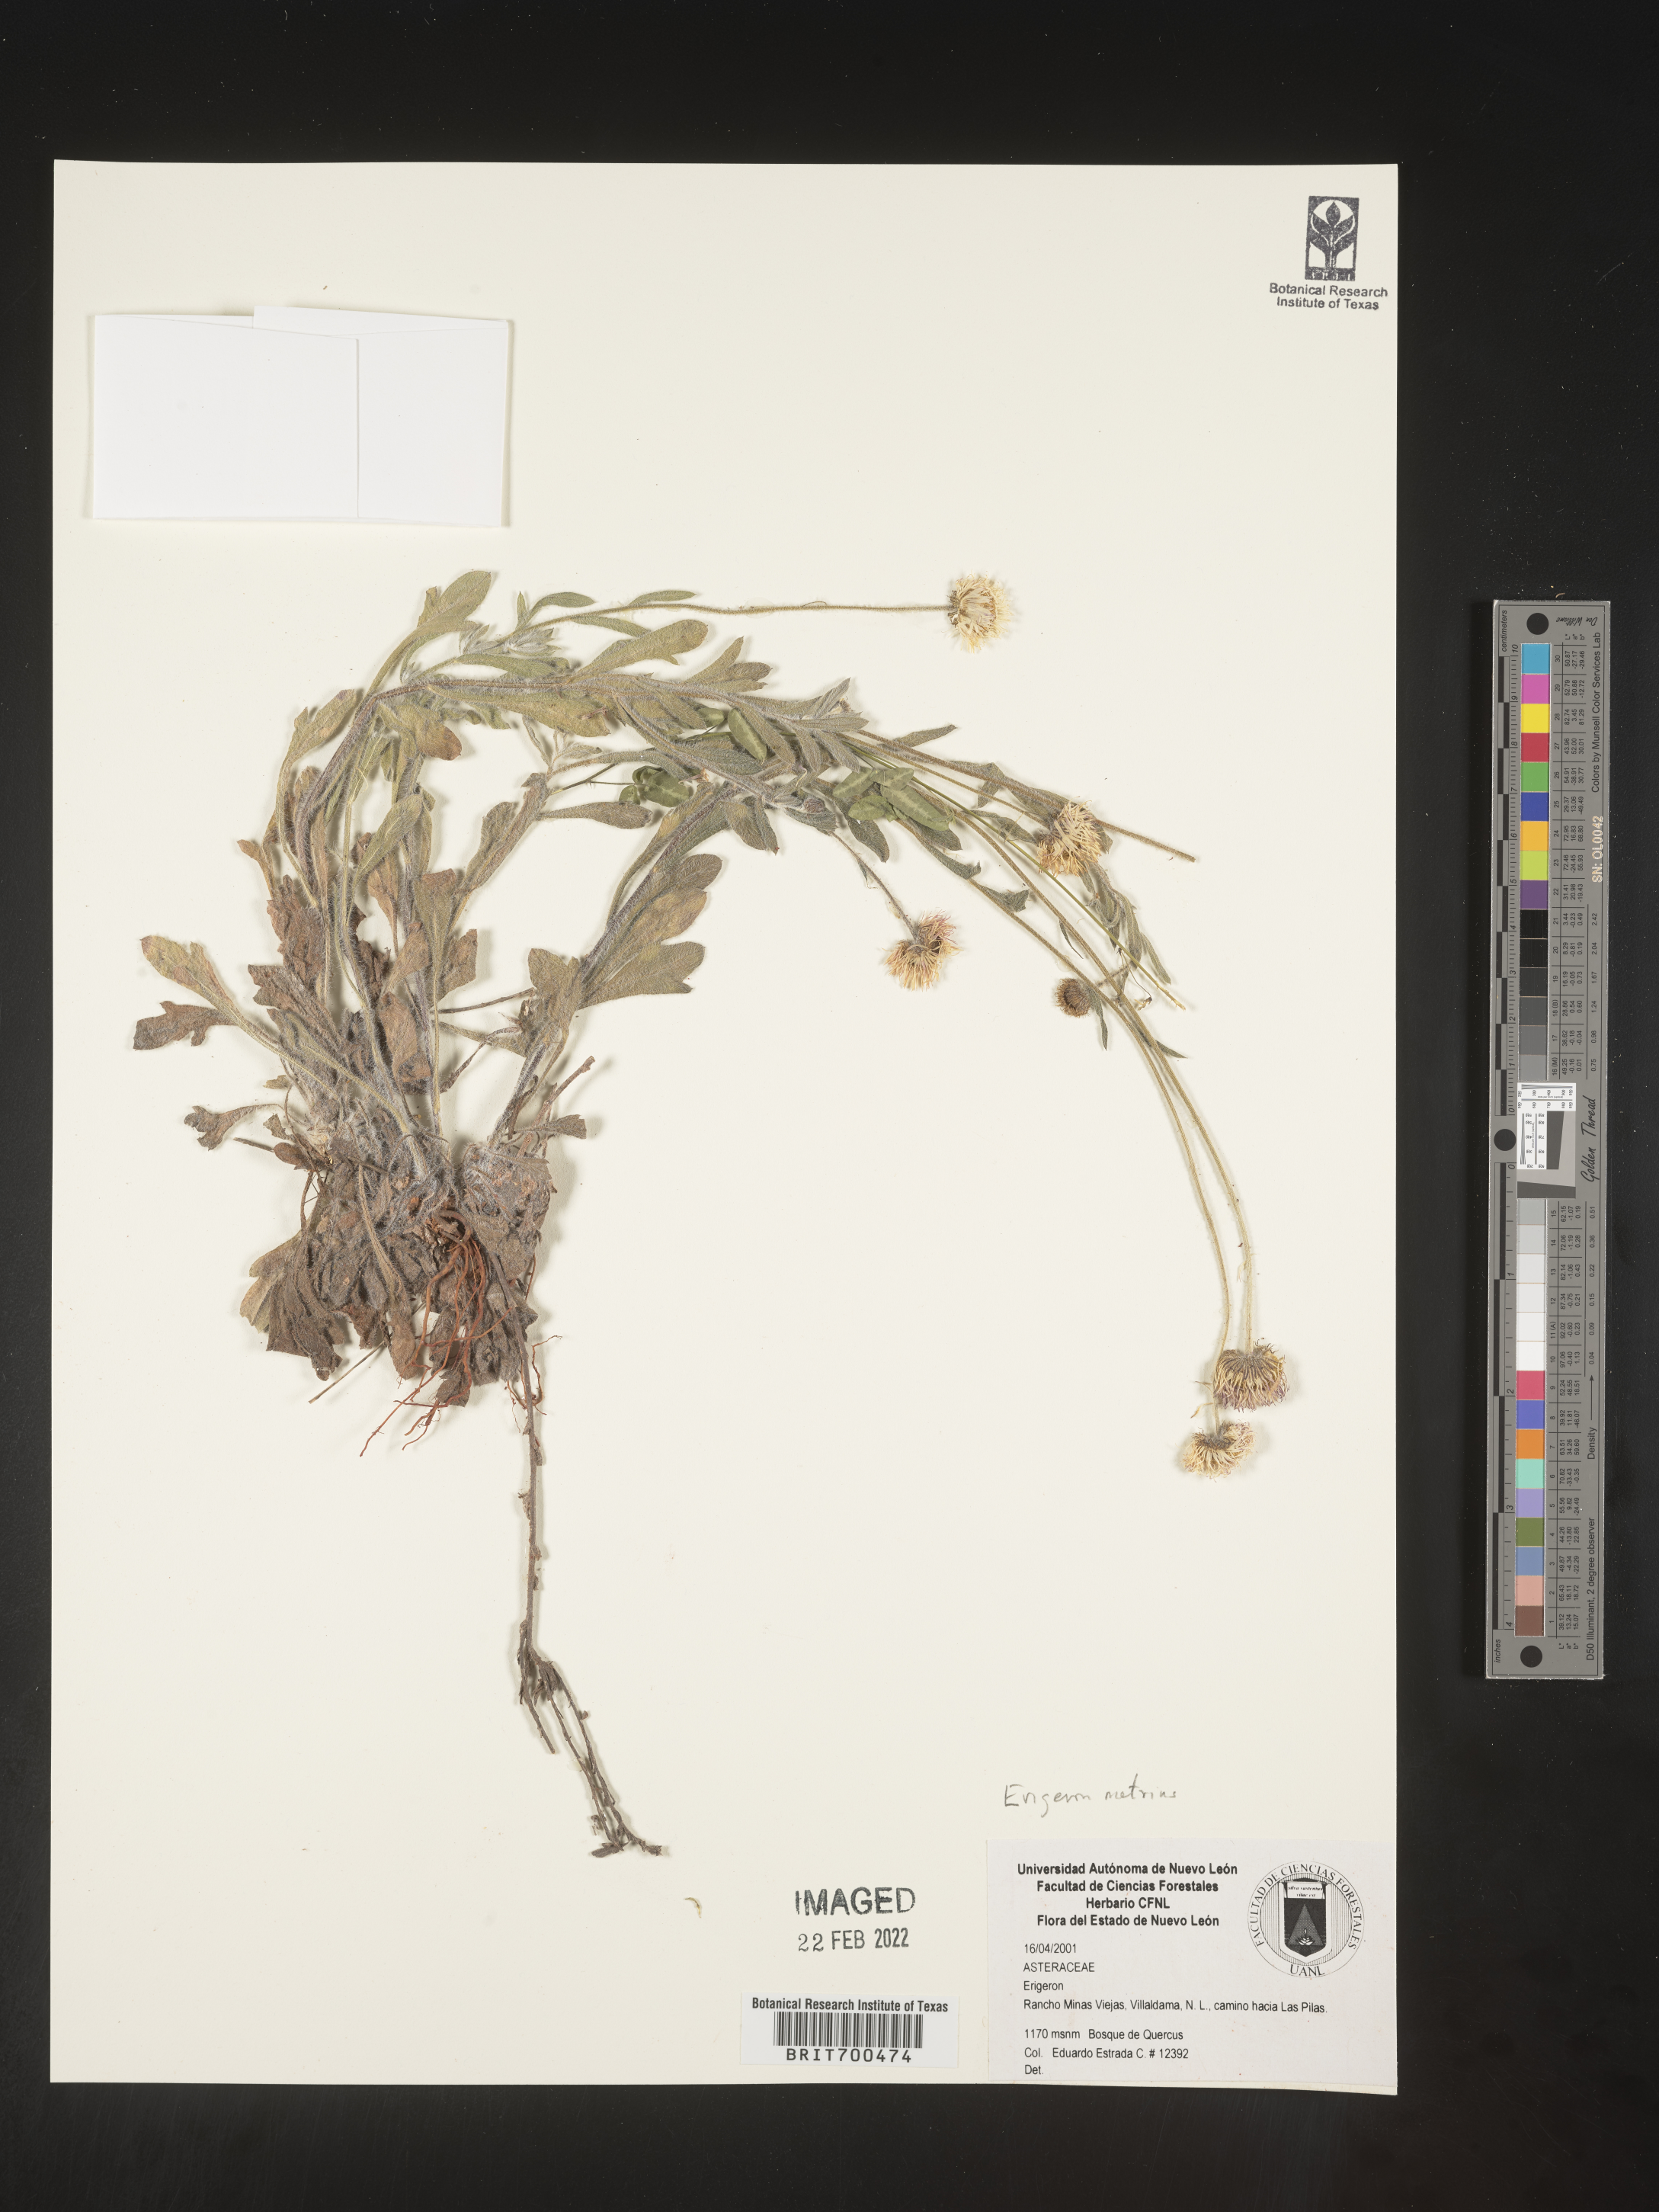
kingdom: Plantae
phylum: Tracheophyta
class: Magnoliopsida
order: Asterales
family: Asteraceae
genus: Erigeron
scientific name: Erigeron
